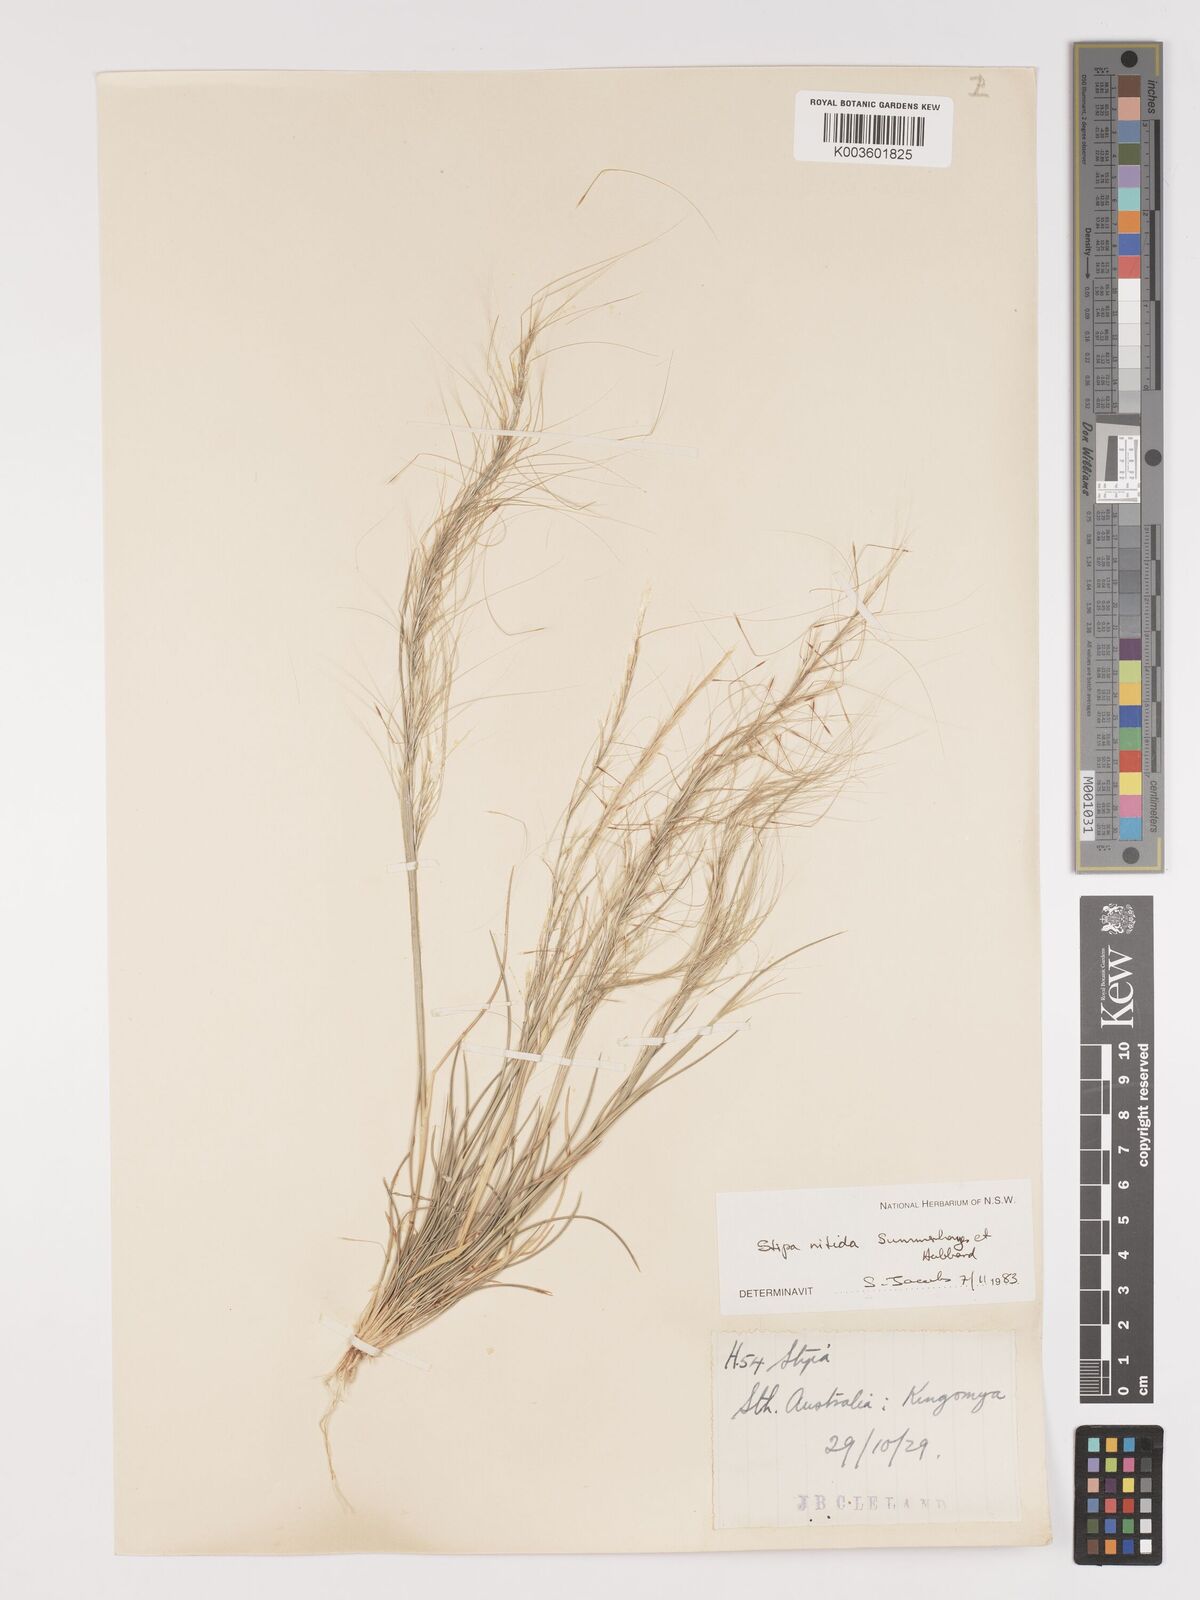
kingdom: Plantae
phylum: Tracheophyta
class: Liliopsida
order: Poales
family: Poaceae
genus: Austrostipa
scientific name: Austrostipa nitida
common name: Balcarra grass
